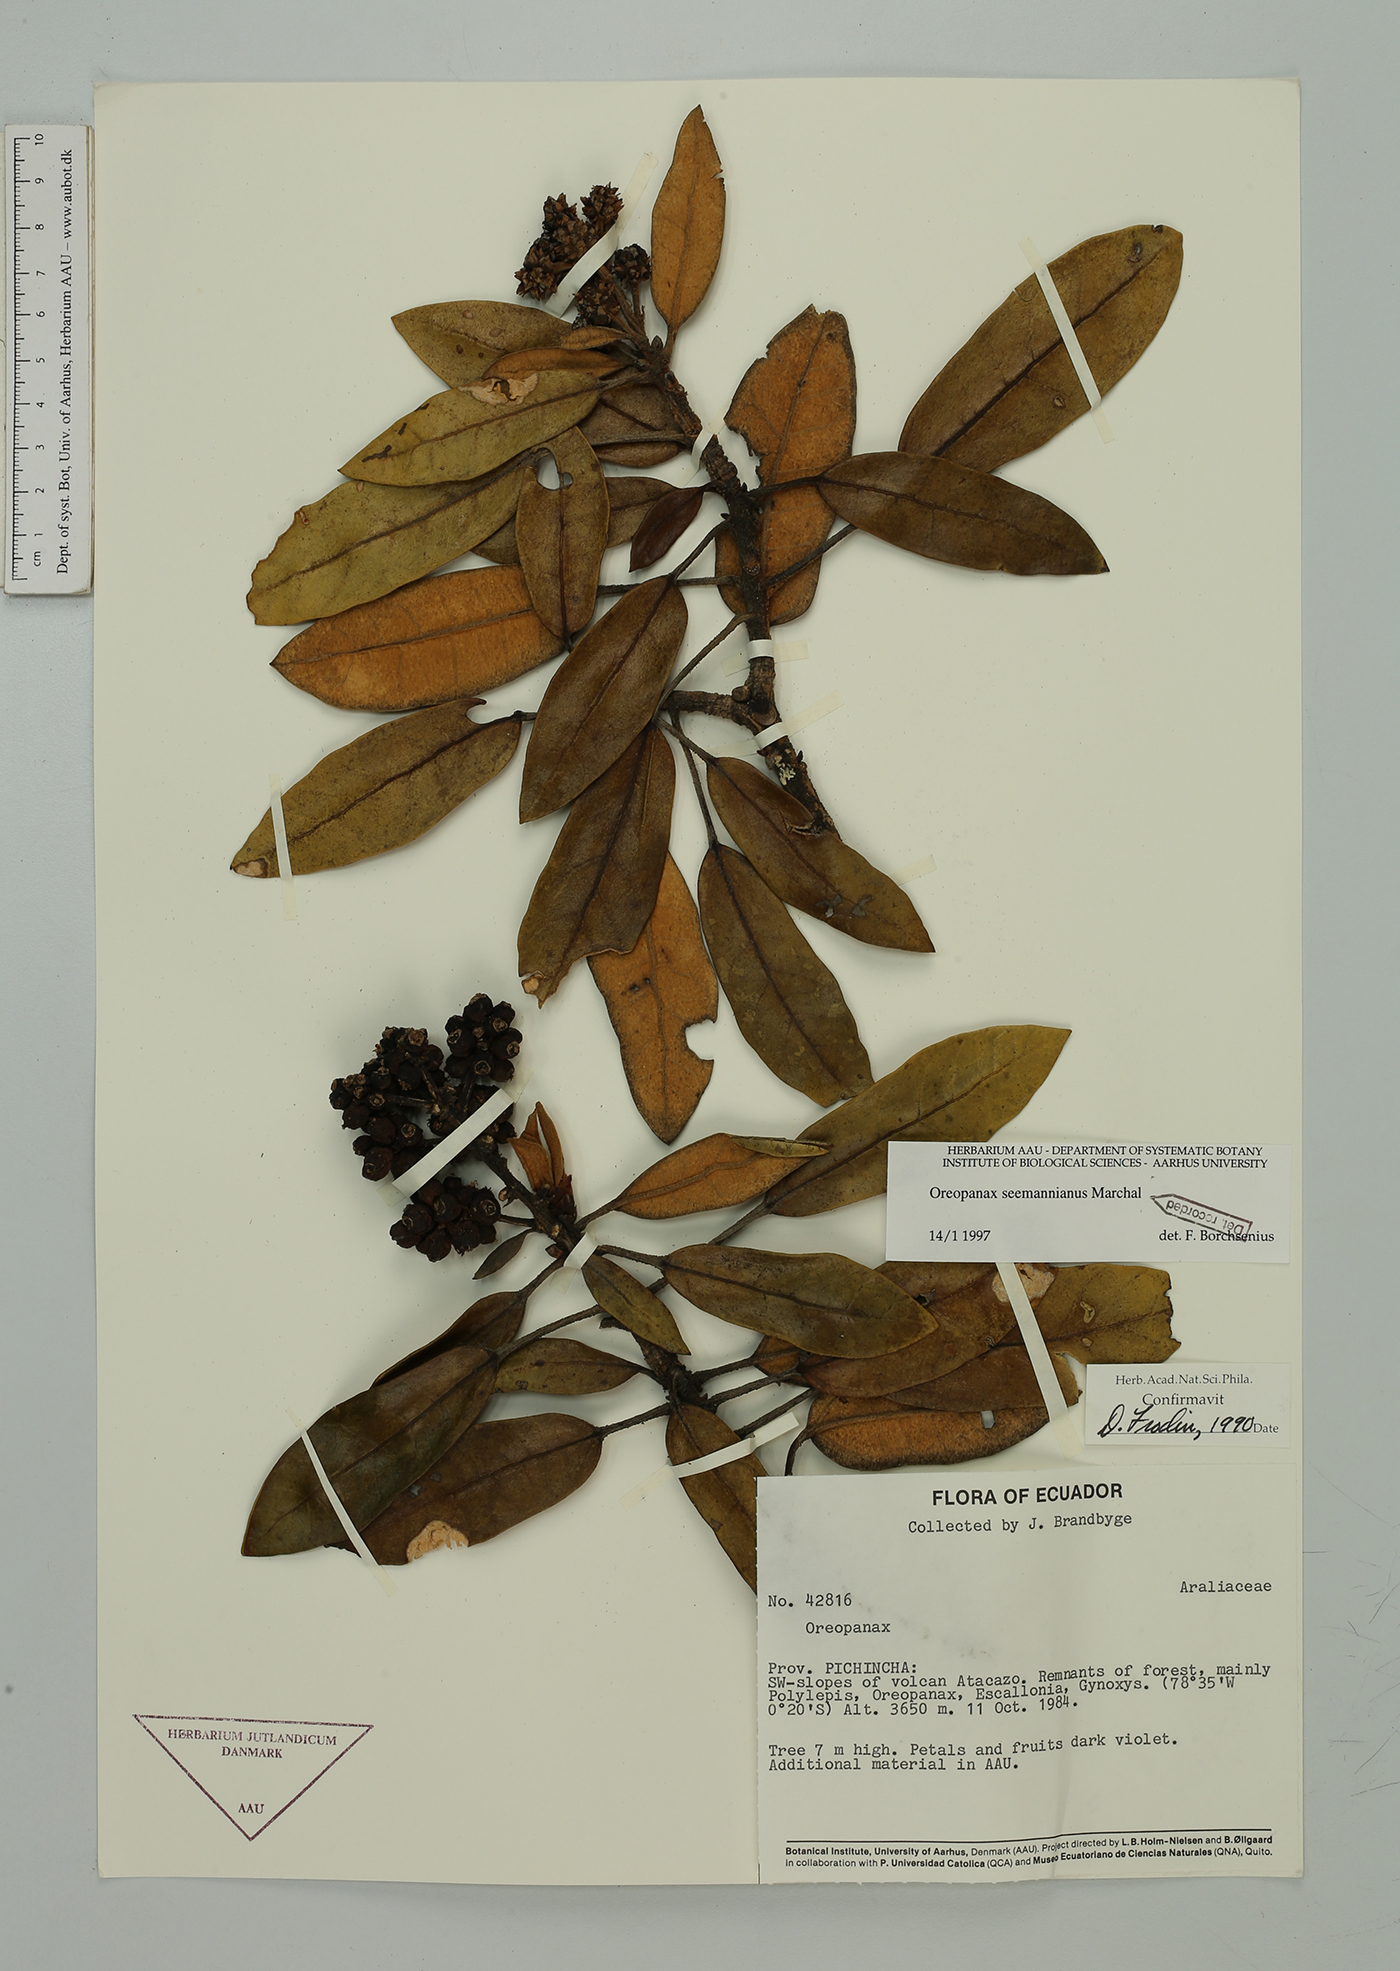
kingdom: Plantae
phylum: Tracheophyta
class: Magnoliopsida
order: Apiales
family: Araliaceae
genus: Oreopanax
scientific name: Oreopanax seemannianus
